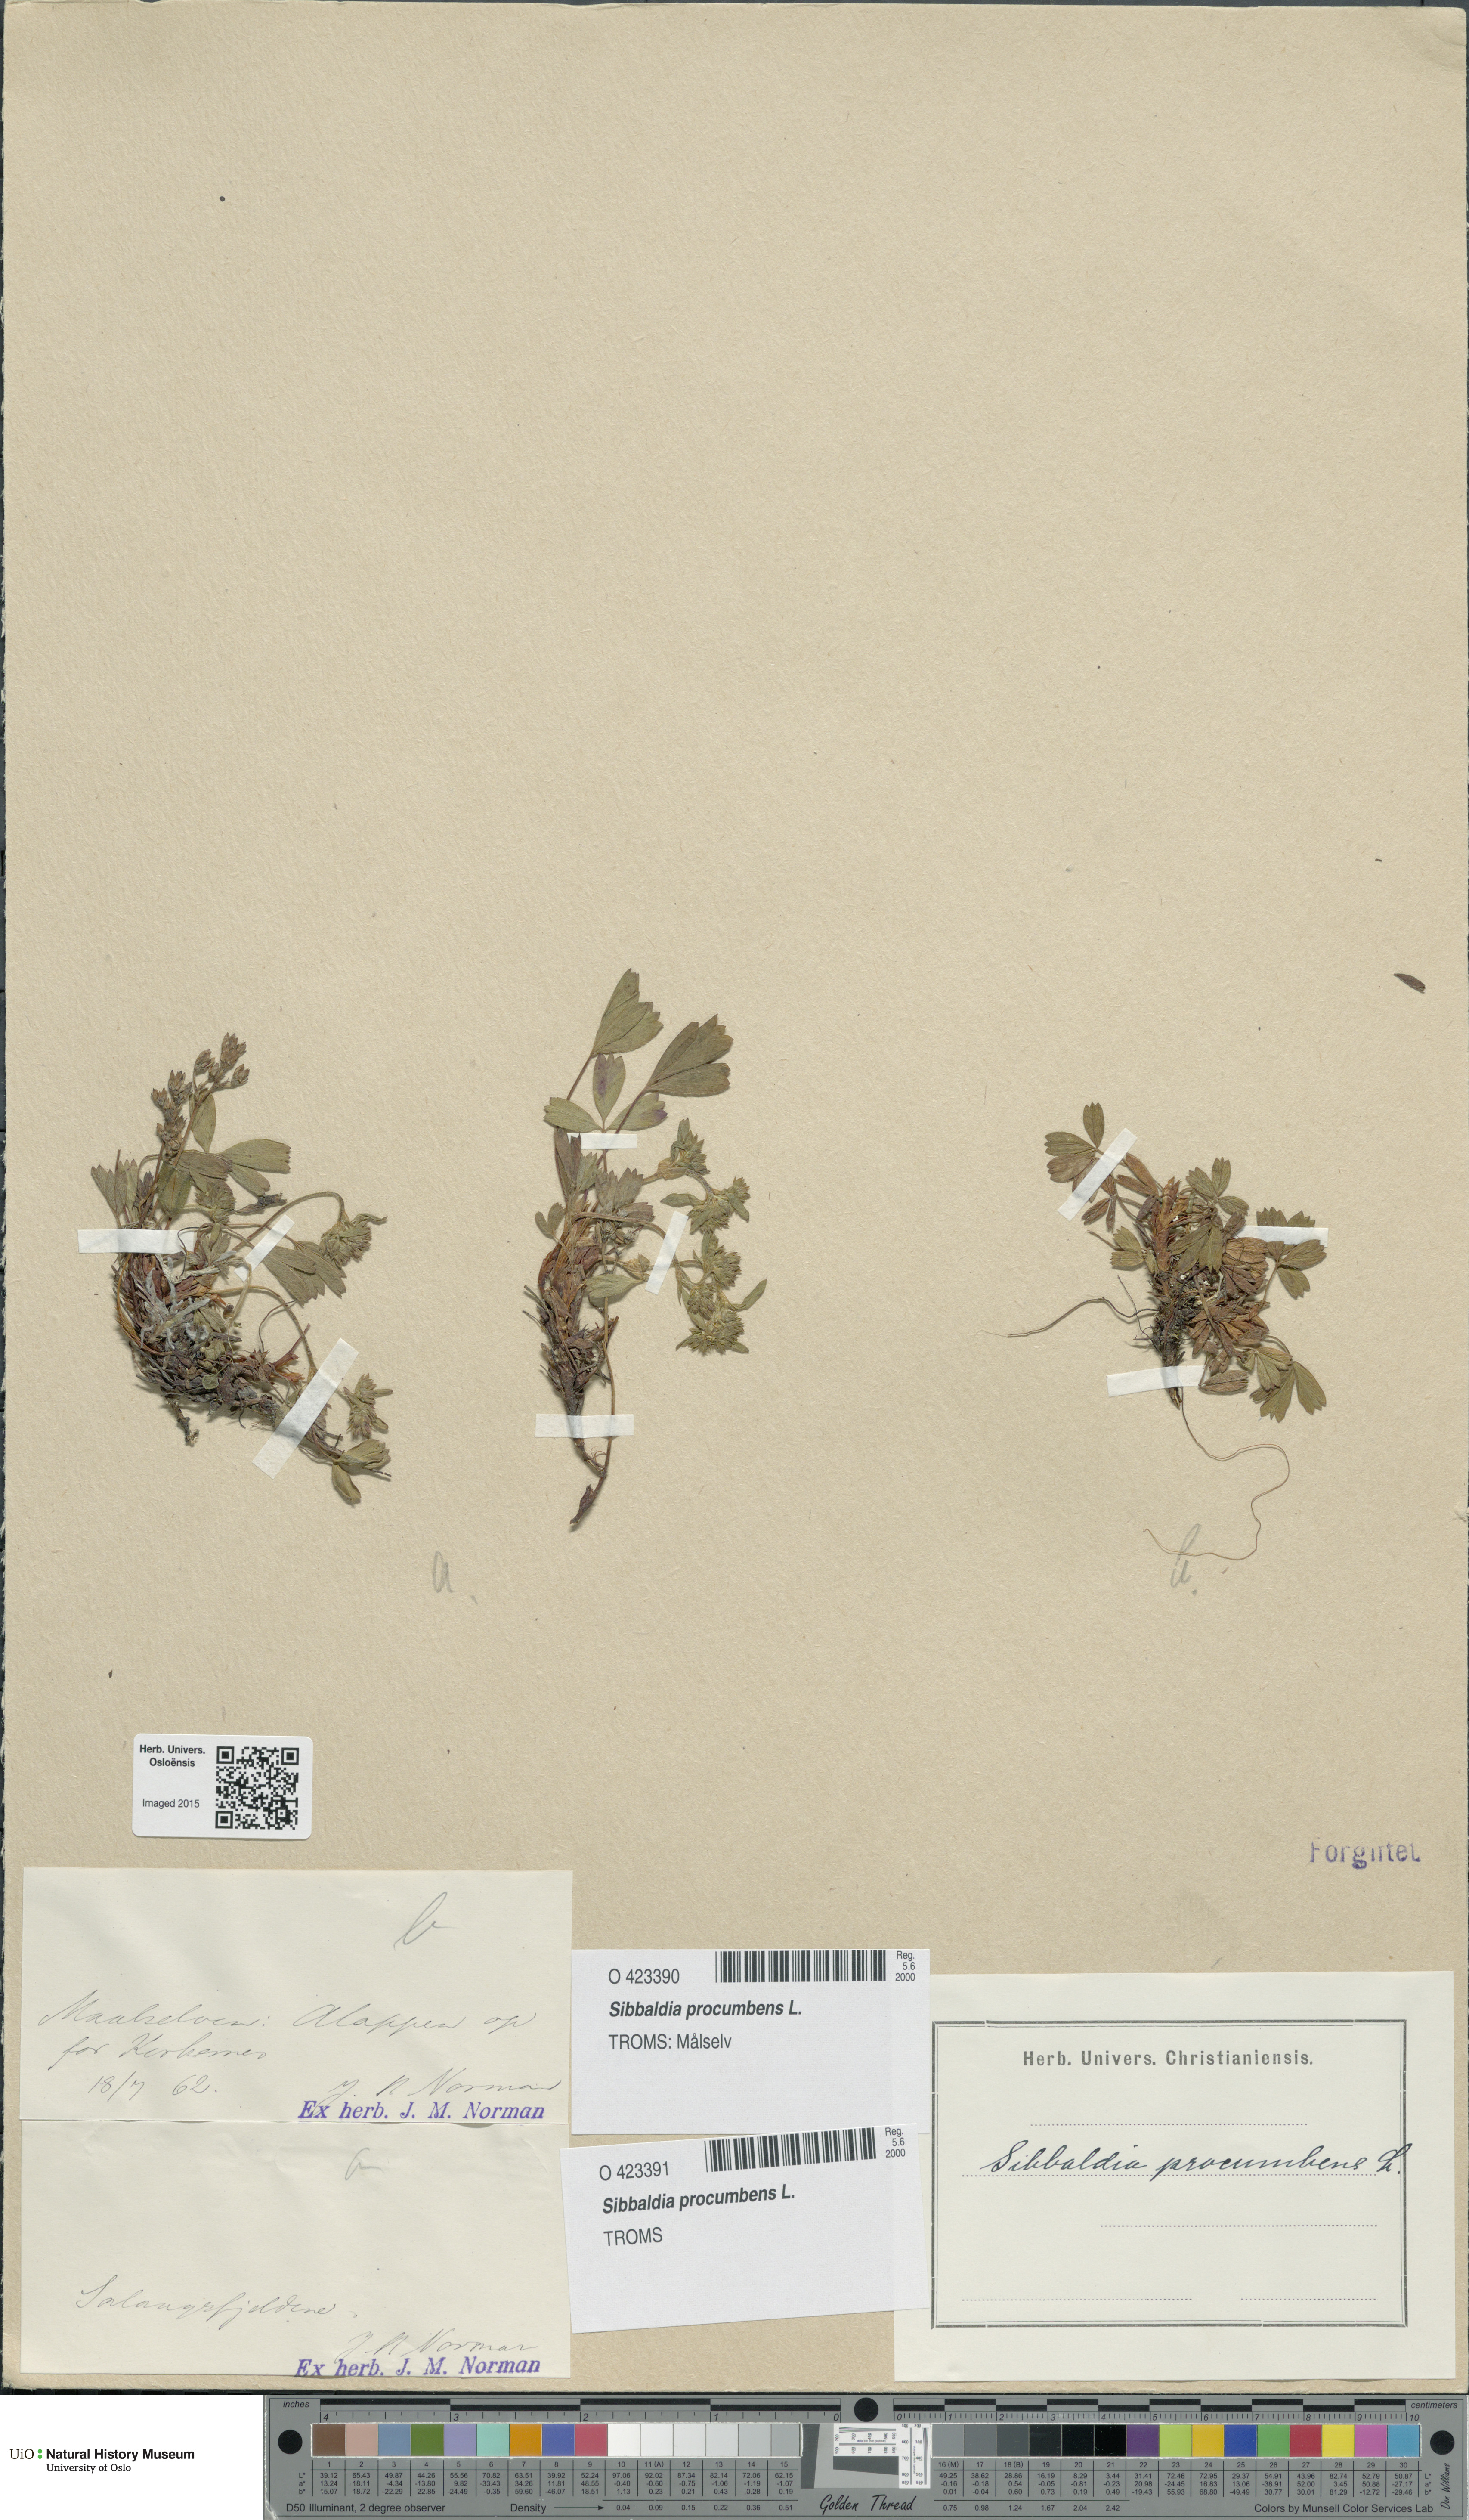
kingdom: Plantae
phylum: Tracheophyta
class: Magnoliopsida
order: Rosales
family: Rosaceae
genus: Sibbaldia
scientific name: Sibbaldia procumbens
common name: Creeping sibbaldia
